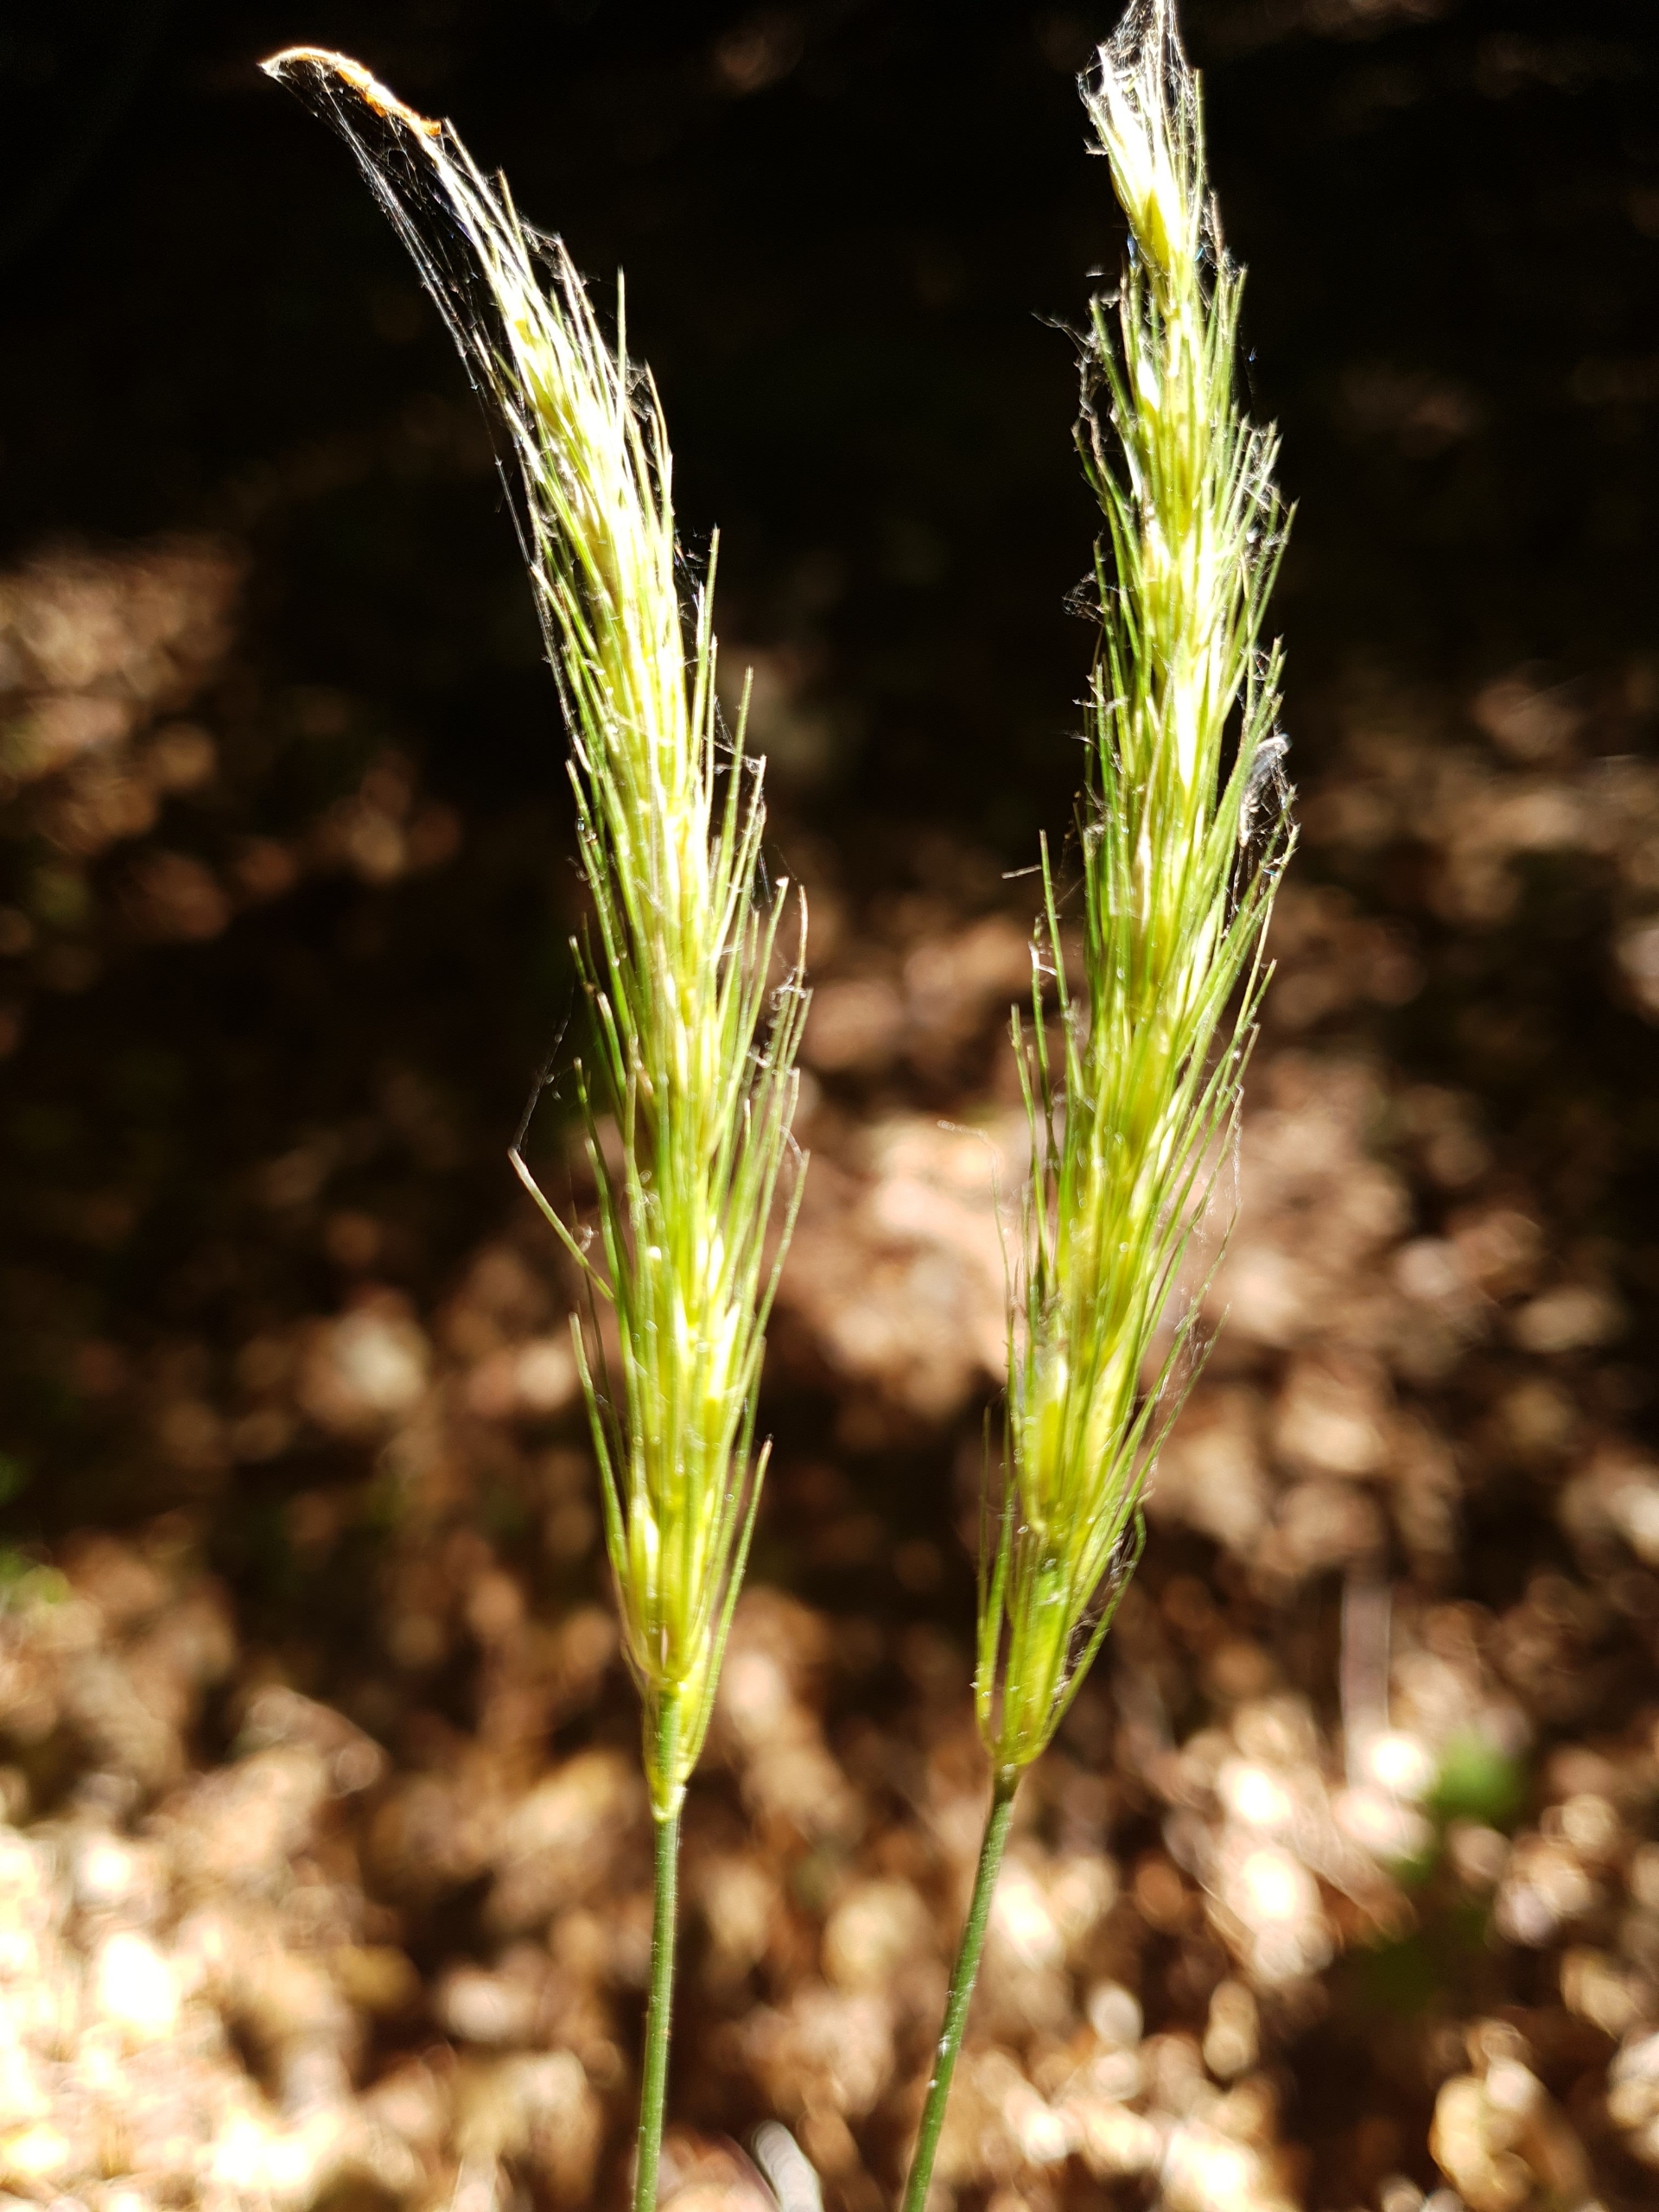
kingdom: Plantae
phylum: Tracheophyta
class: Liliopsida
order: Poales
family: Poaceae
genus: Hordelymus
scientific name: Hordelymus europaeus
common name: Skovbyg
